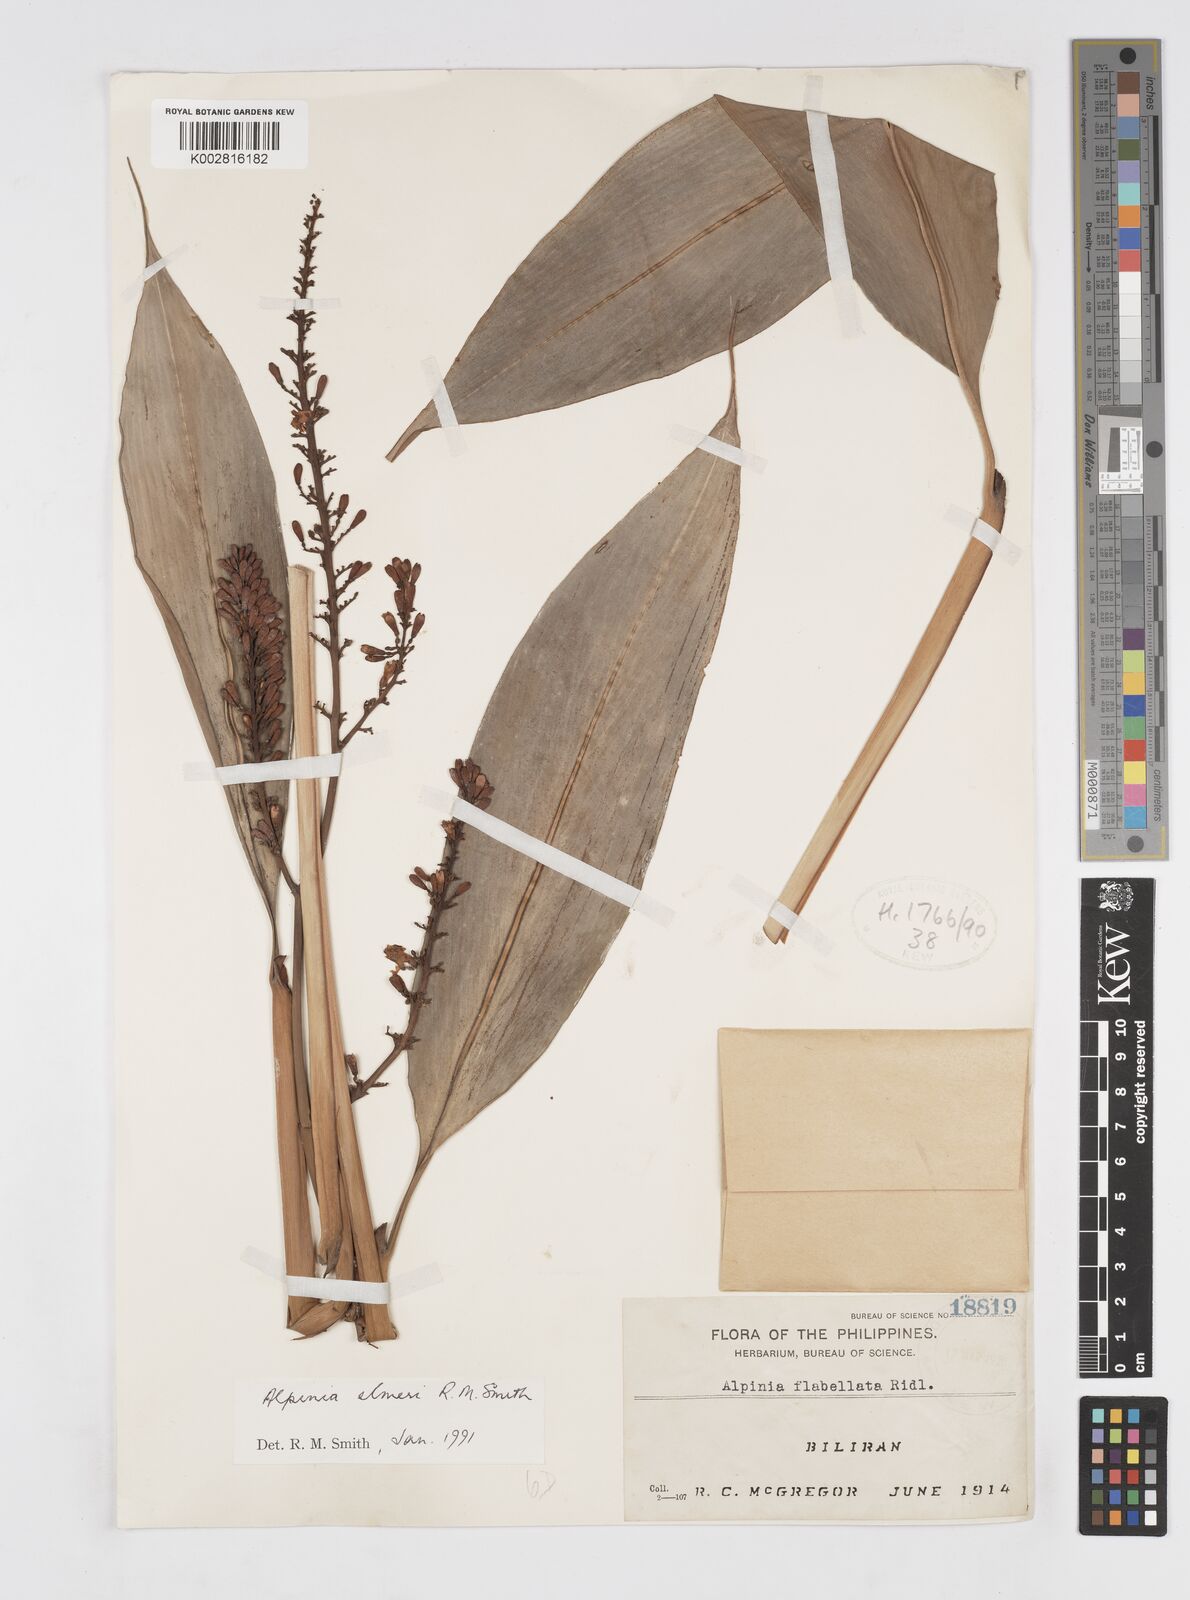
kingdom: Plantae
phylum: Tracheophyta
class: Liliopsida
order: Zingiberales
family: Zingiberaceae
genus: Alpinia
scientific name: Alpinia elmeri
